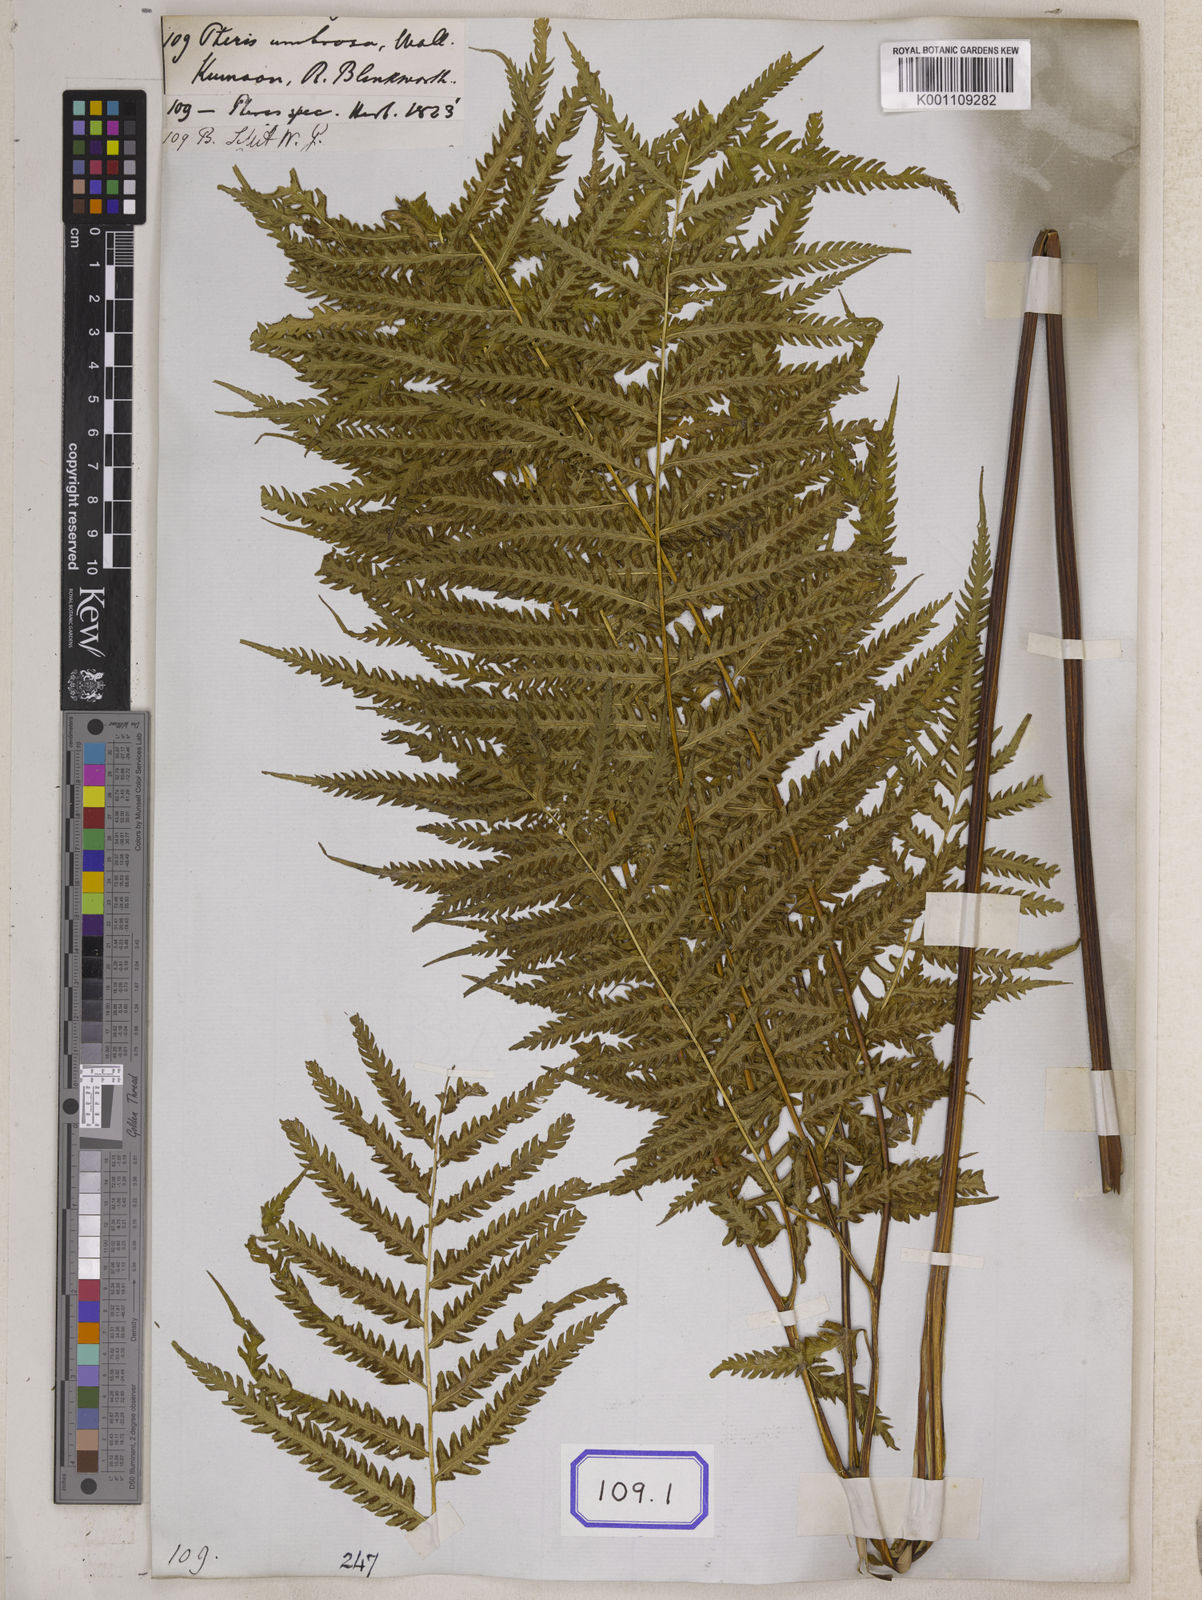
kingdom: Plantae
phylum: Tracheophyta
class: Polypodiopsida
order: Polypodiales
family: Pteridaceae
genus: Pteris
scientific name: Pteris longipes
